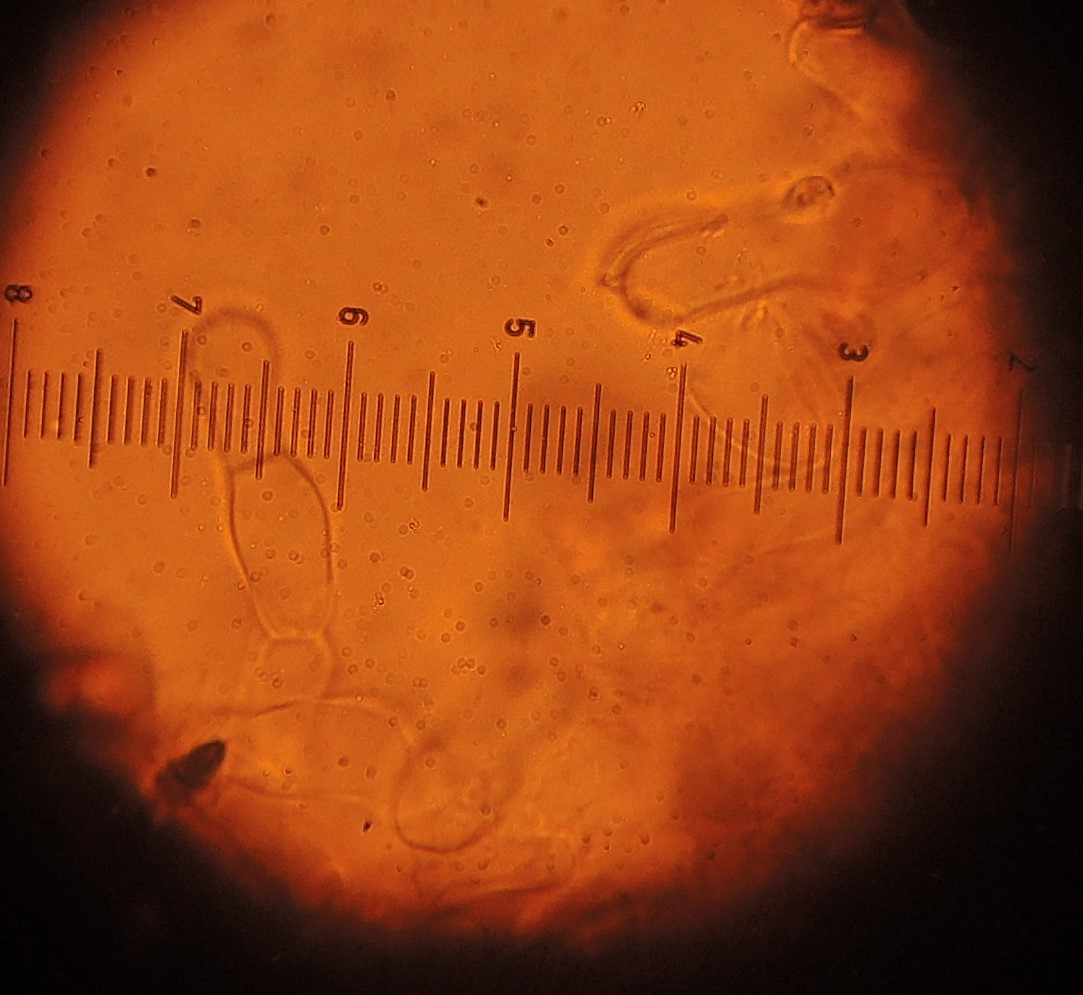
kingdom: Fungi
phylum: Basidiomycota
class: Agaricomycetes
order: Agaricales
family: Entolomataceae
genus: Entoloma
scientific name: Entoloma hebes
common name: krat-rødblad
